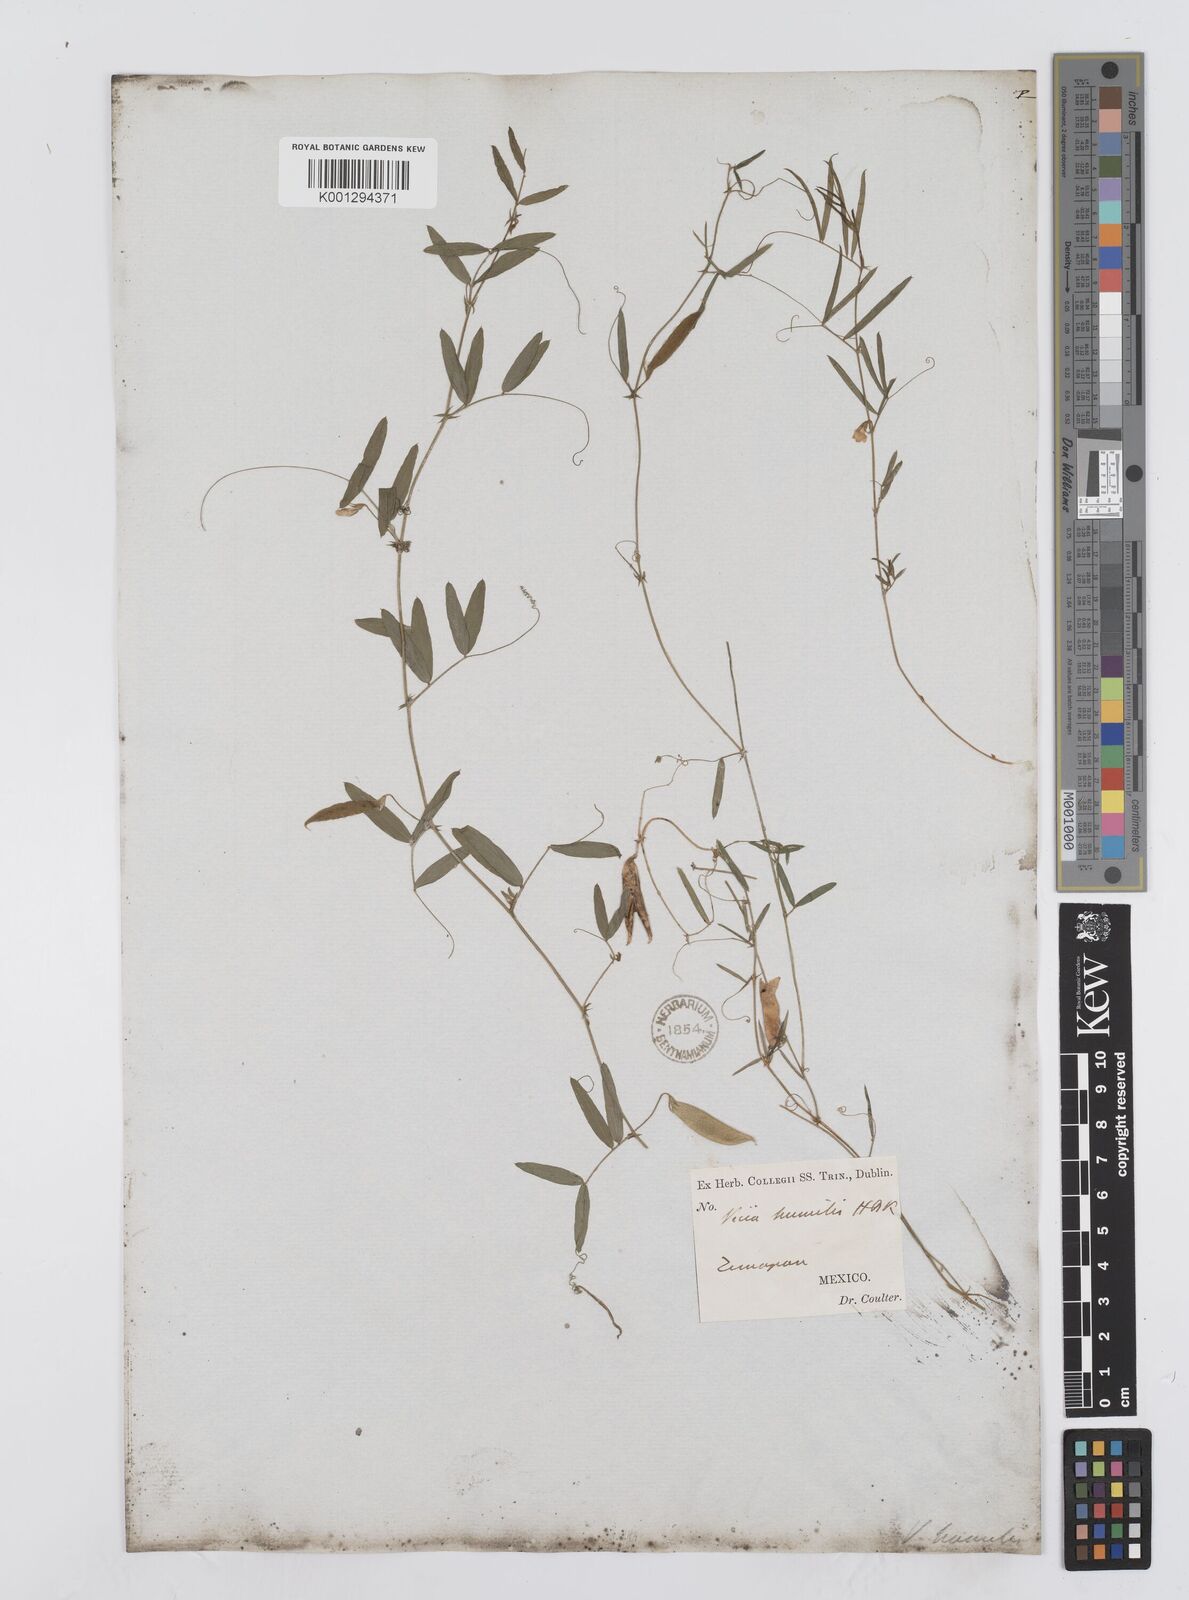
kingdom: Plantae
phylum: Tracheophyta
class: Magnoliopsida
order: Fabales
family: Fabaceae
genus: Vicia
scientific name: Vicia humilis
